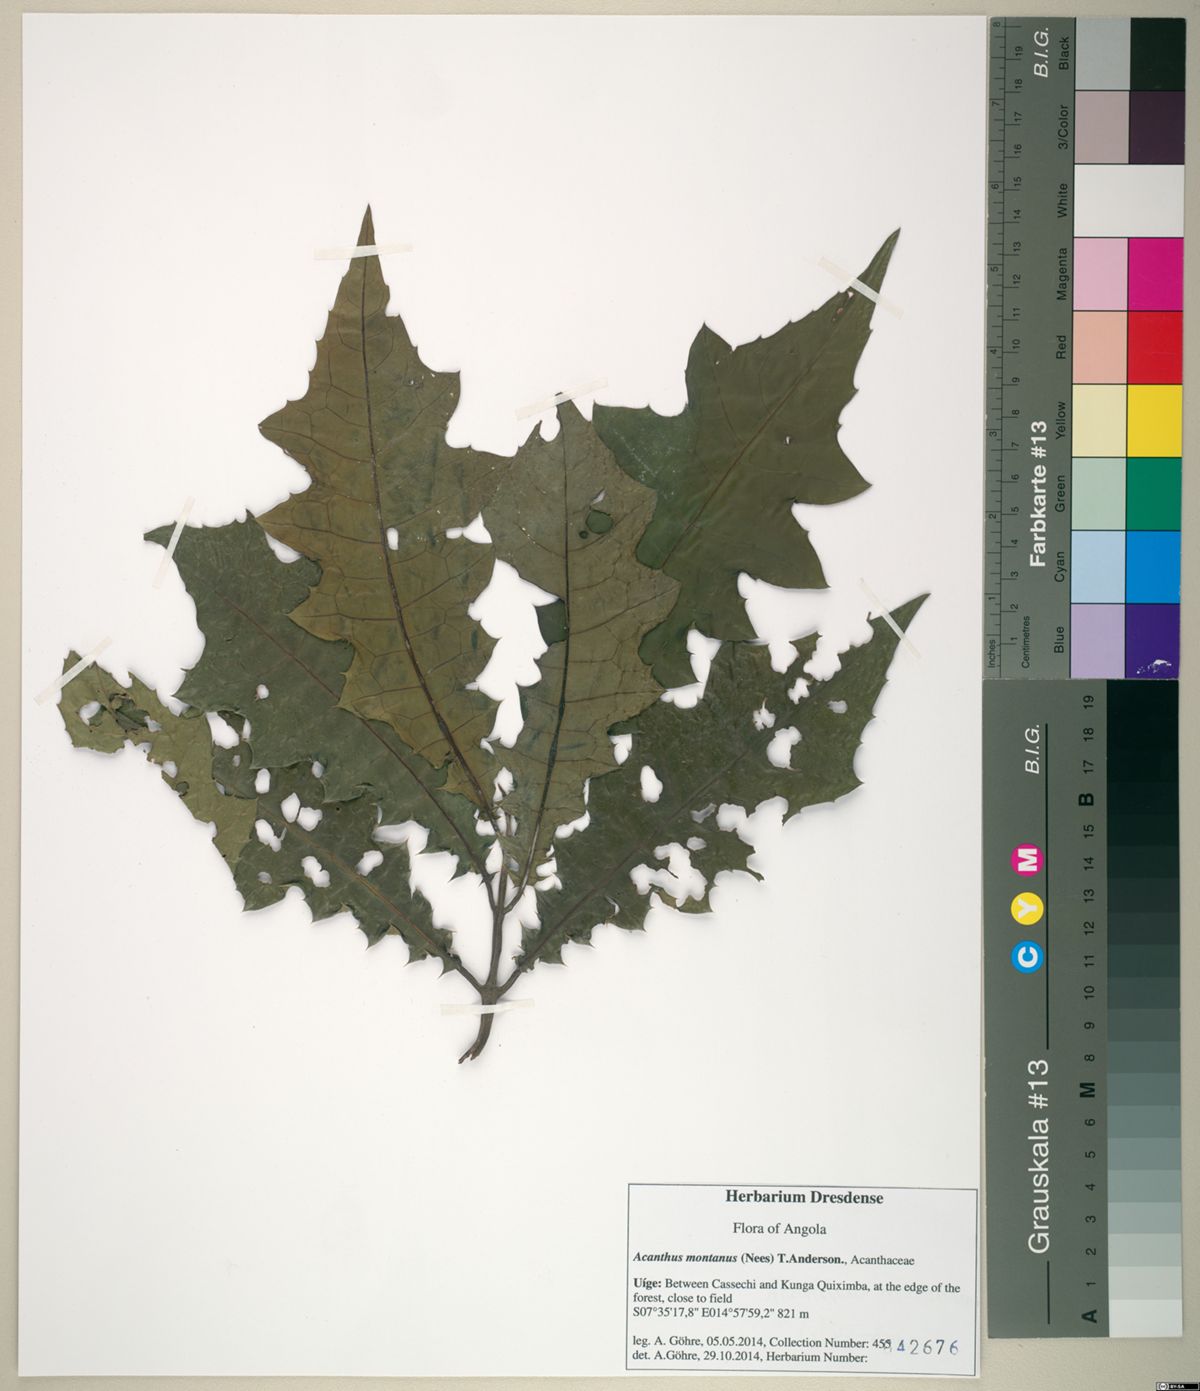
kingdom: Plantae
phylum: Tracheophyta
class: Magnoliopsida
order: Lamiales
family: Acanthaceae
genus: Acanthus
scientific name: Acanthus montanus
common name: Mountain thistle
